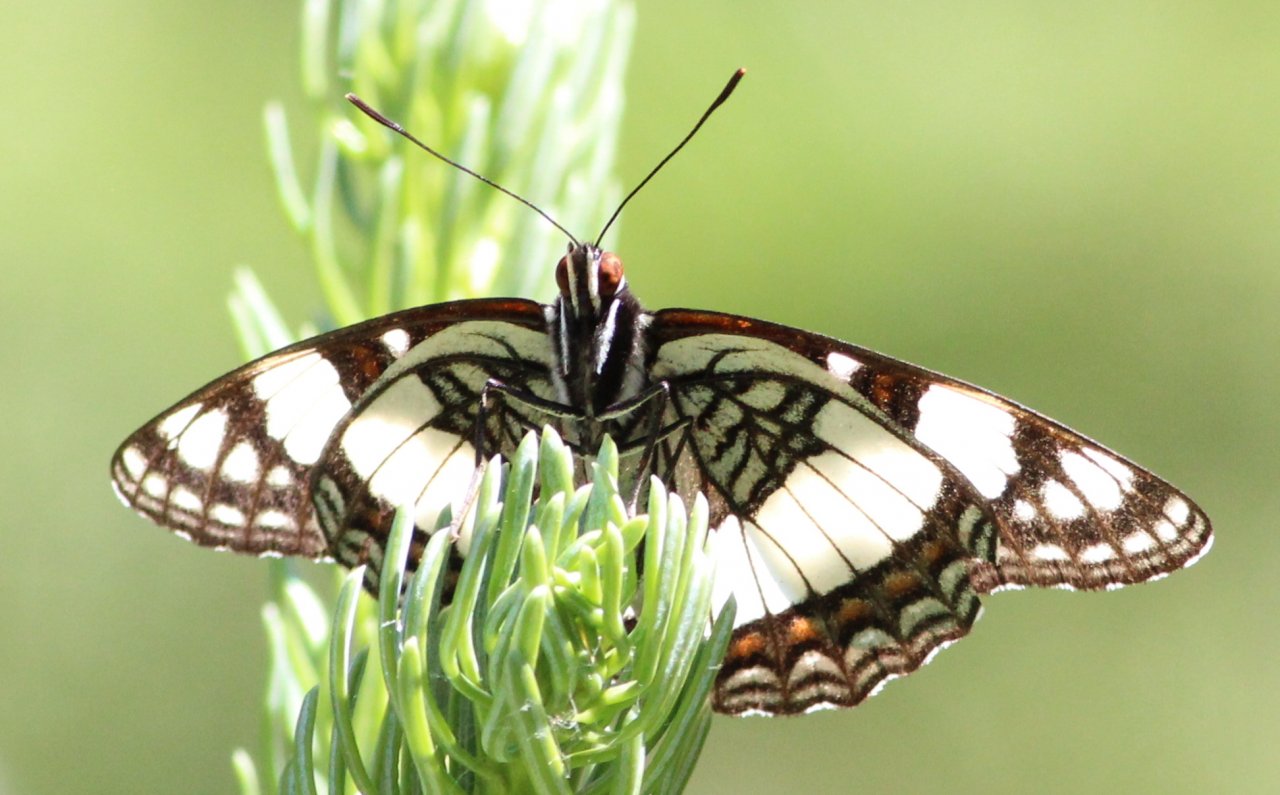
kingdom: Animalia
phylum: Arthropoda
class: Insecta
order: Lepidoptera
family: Nymphalidae
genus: Limenitis
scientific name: Limenitis weidemeyerii
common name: Weidemeyer's Admiral
